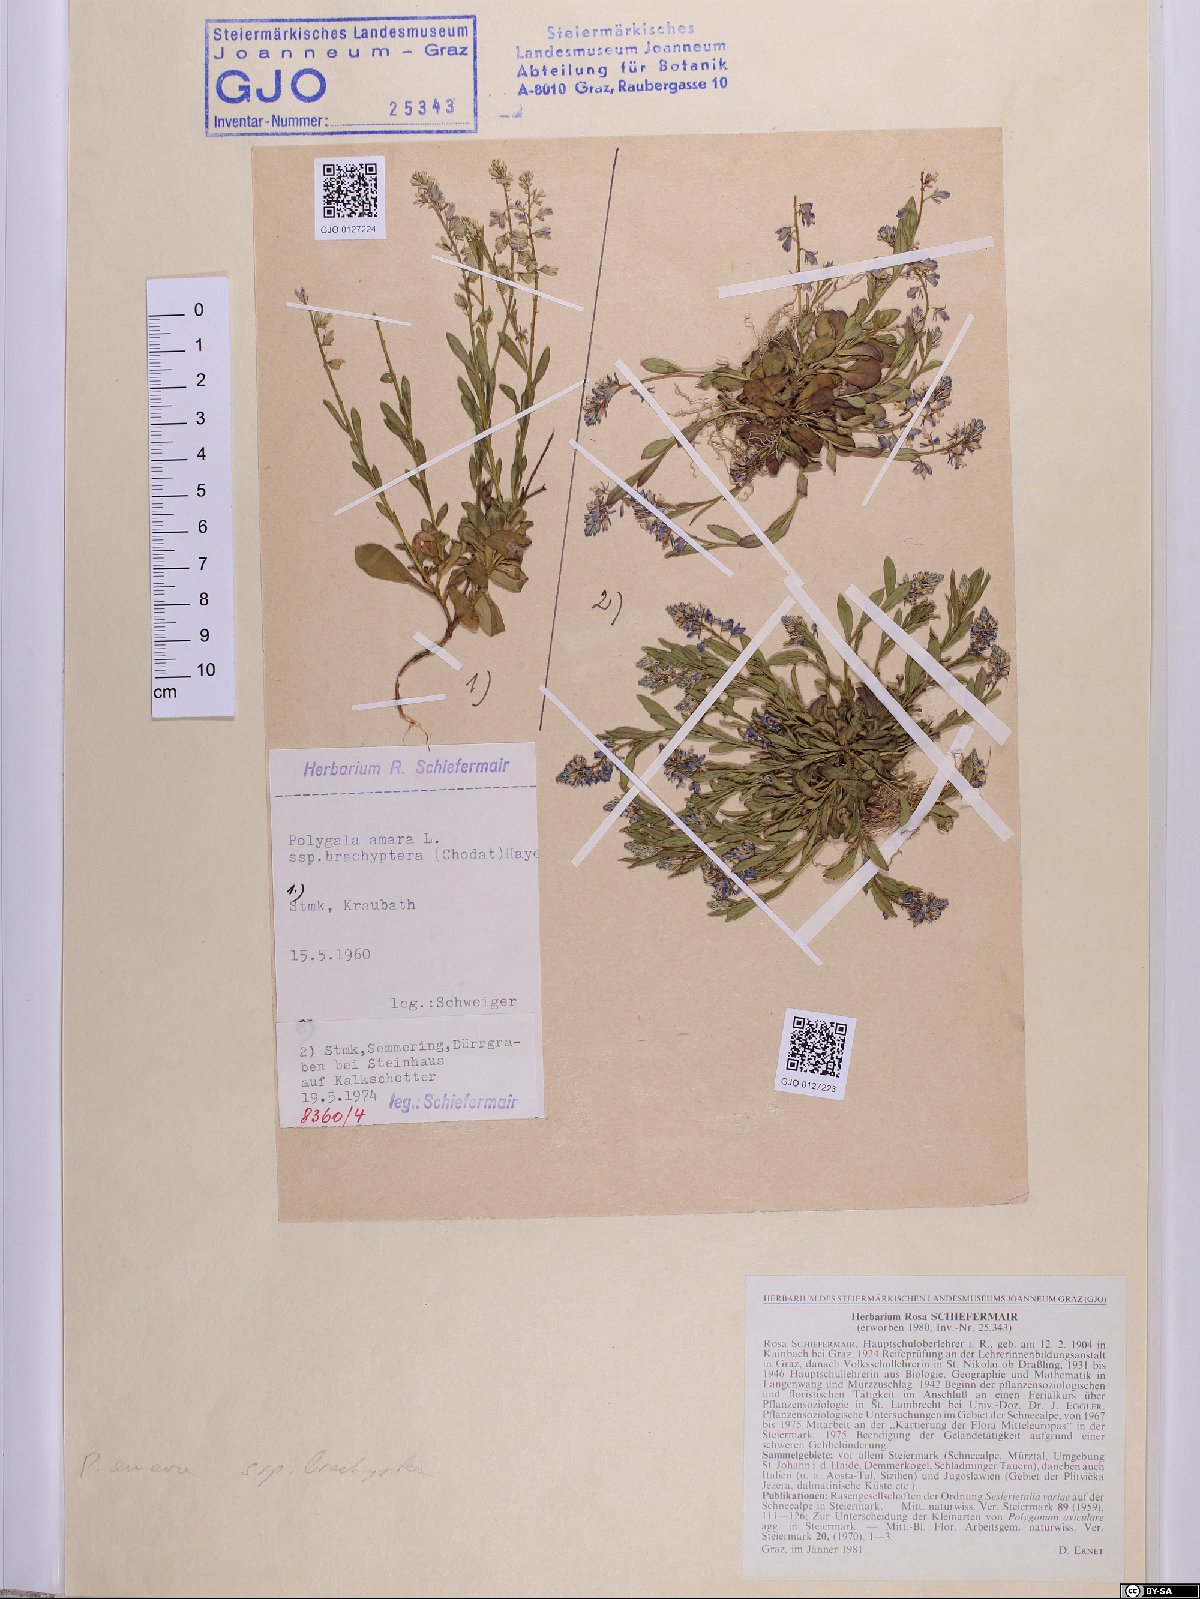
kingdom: Plantae
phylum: Tracheophyta
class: Magnoliopsida
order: Fabales
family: Polygalaceae
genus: Polygala
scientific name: Polygala amara
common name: Milkwort
